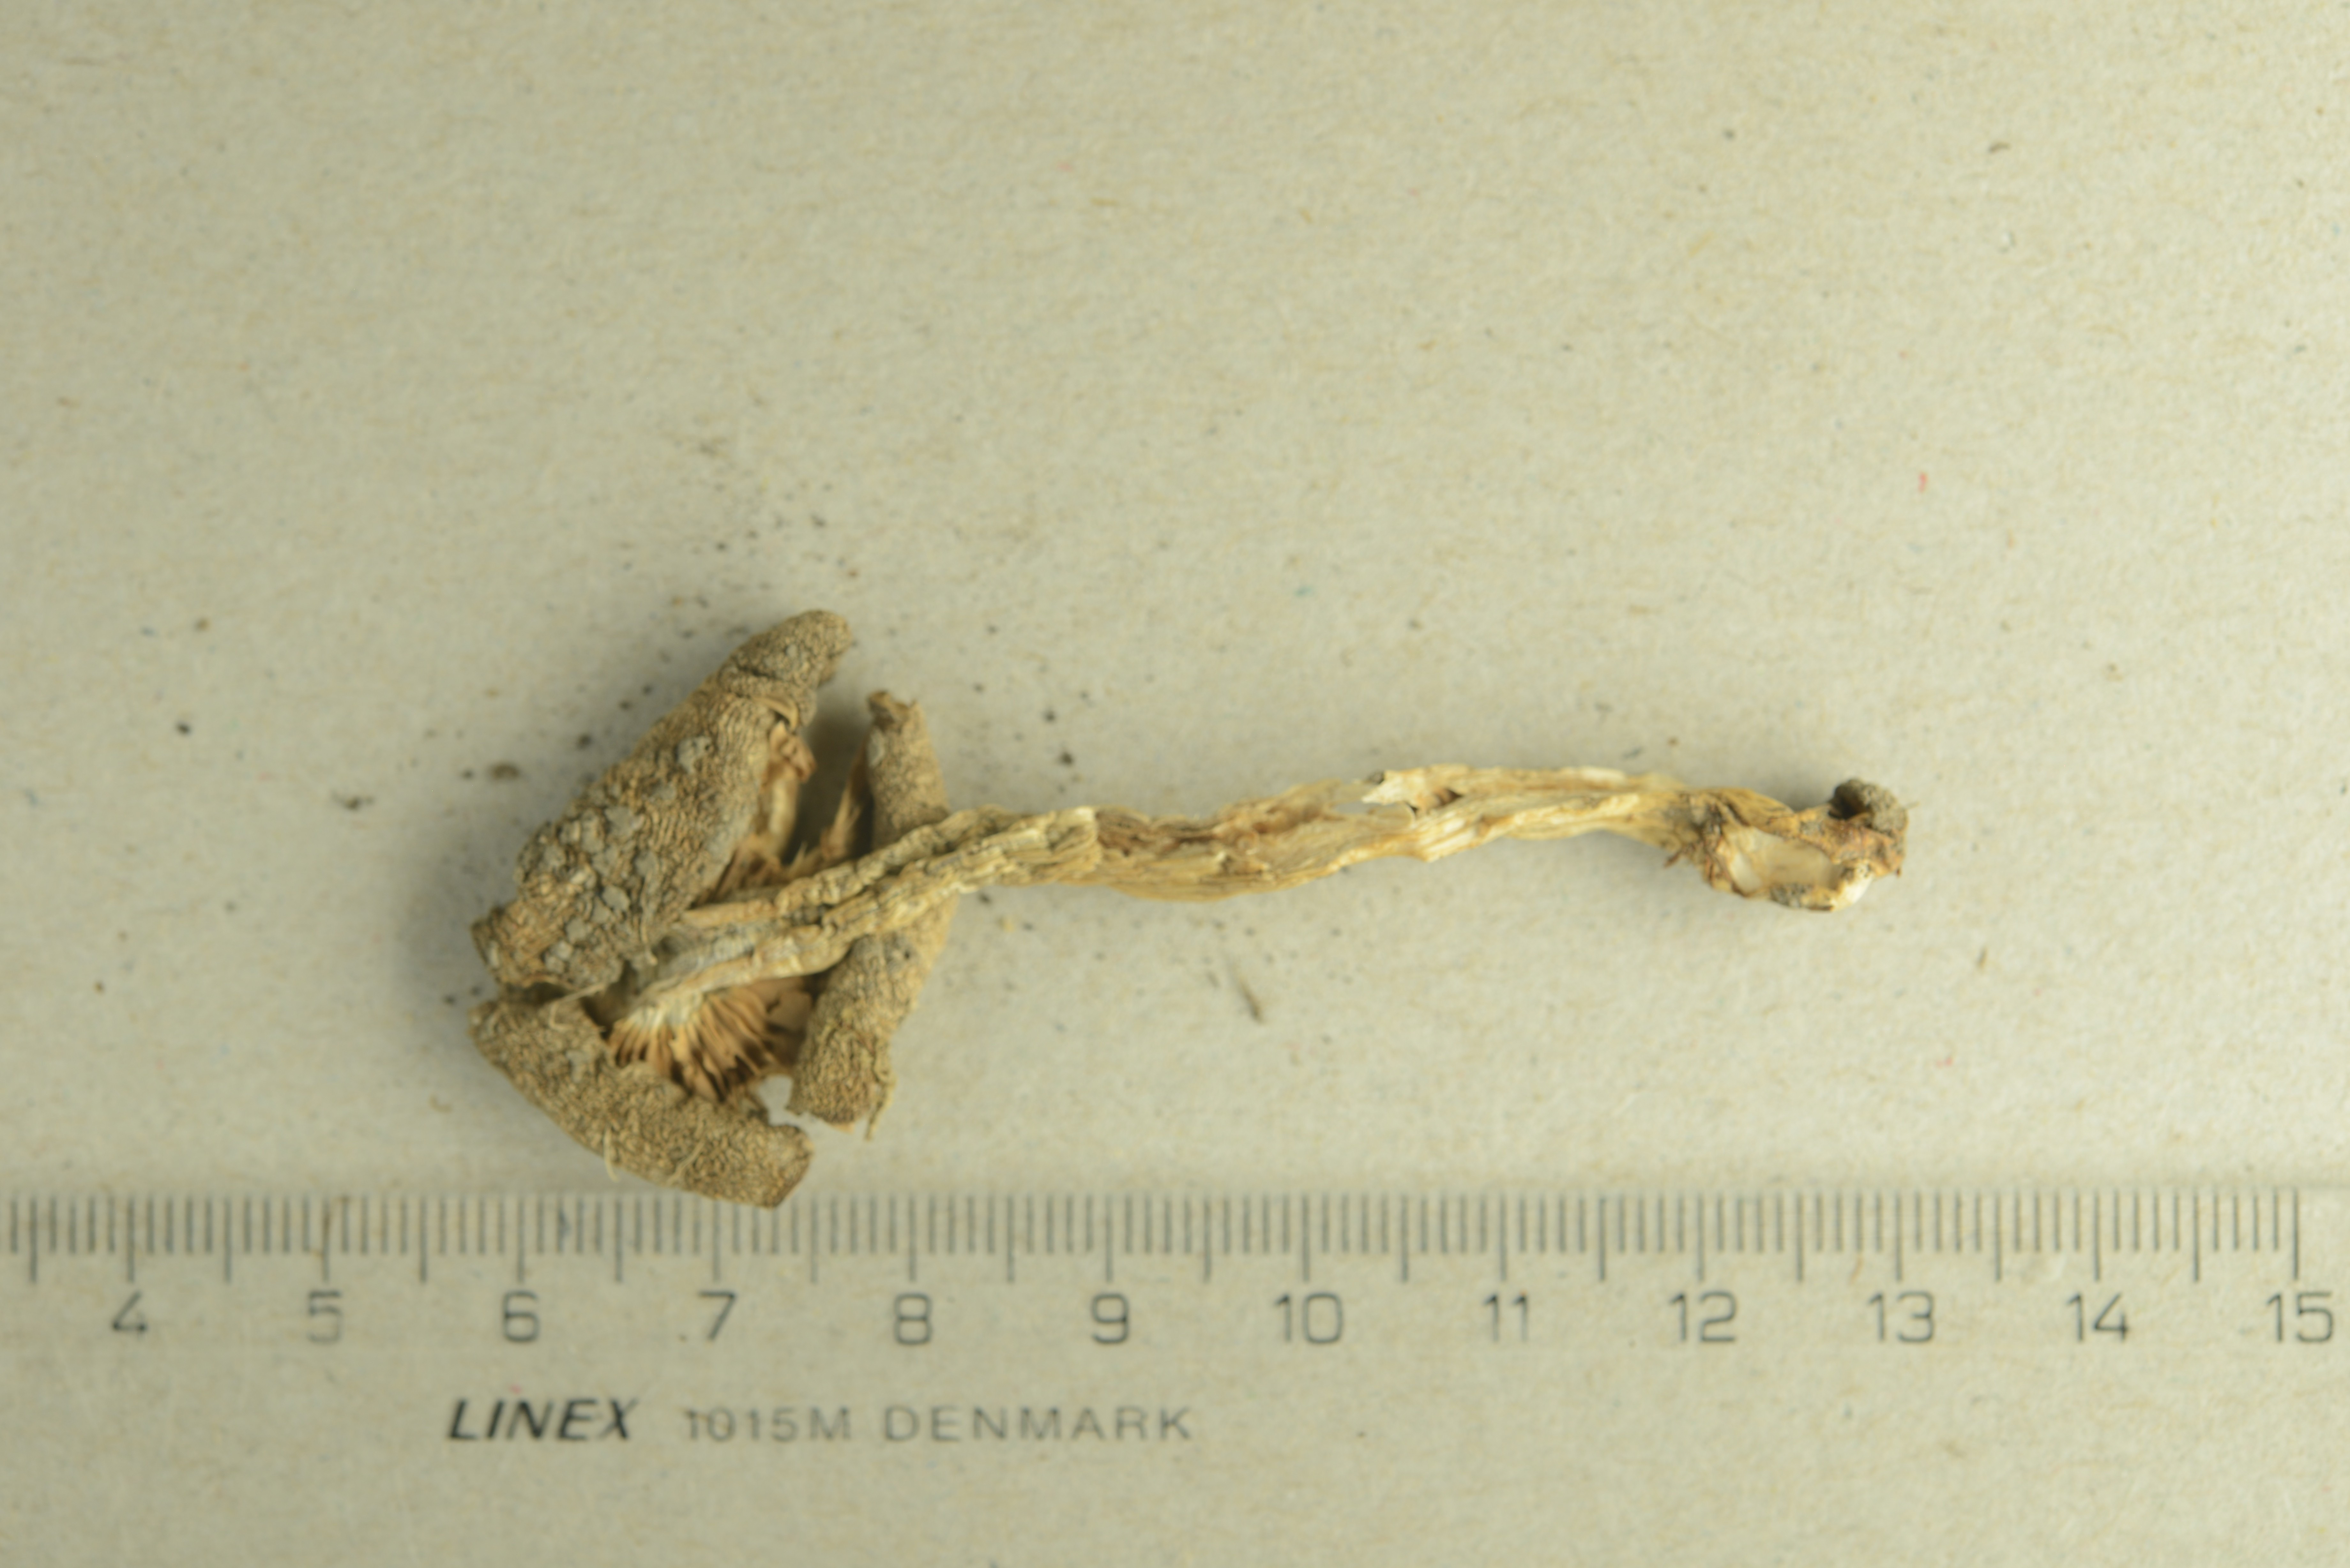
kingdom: Fungi
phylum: Basidiomycota
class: Agaricomycetes
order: Agaricales
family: Entolomataceae
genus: Entoloma
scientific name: Entoloma sepium
